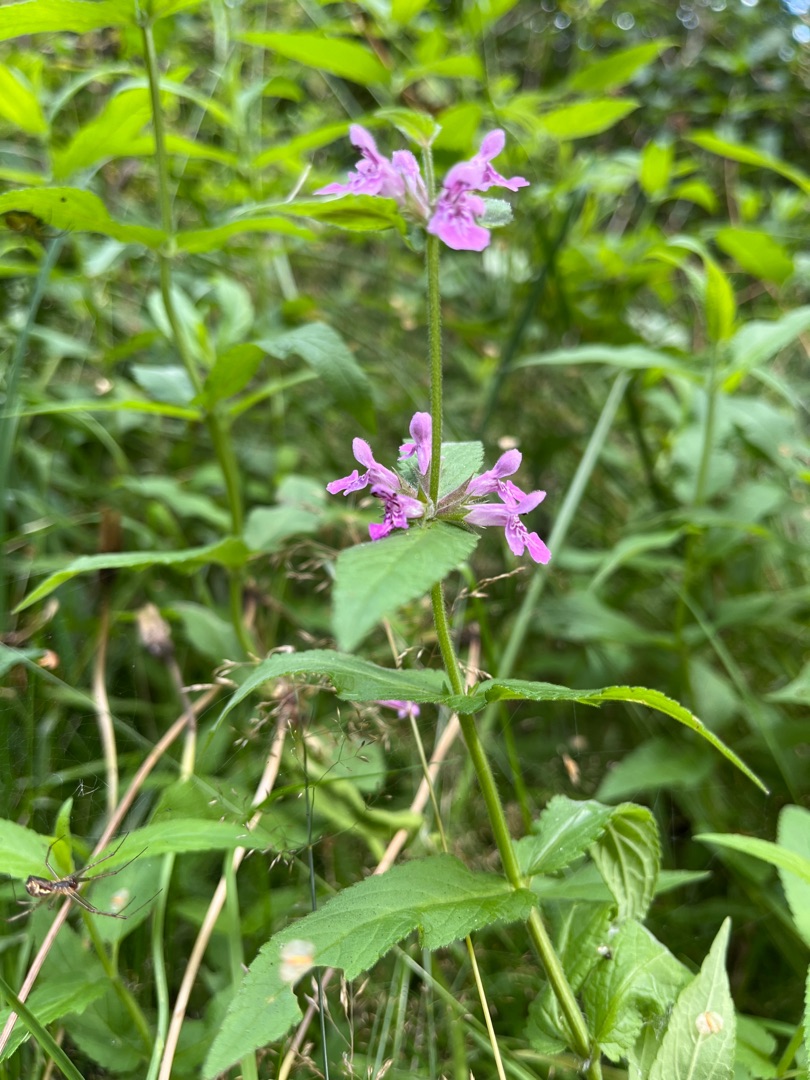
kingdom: Plantae
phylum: Tracheophyta
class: Magnoliopsida
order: Lamiales
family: Lamiaceae
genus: Stachys
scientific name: Stachys palustris
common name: Kær-galtetand
